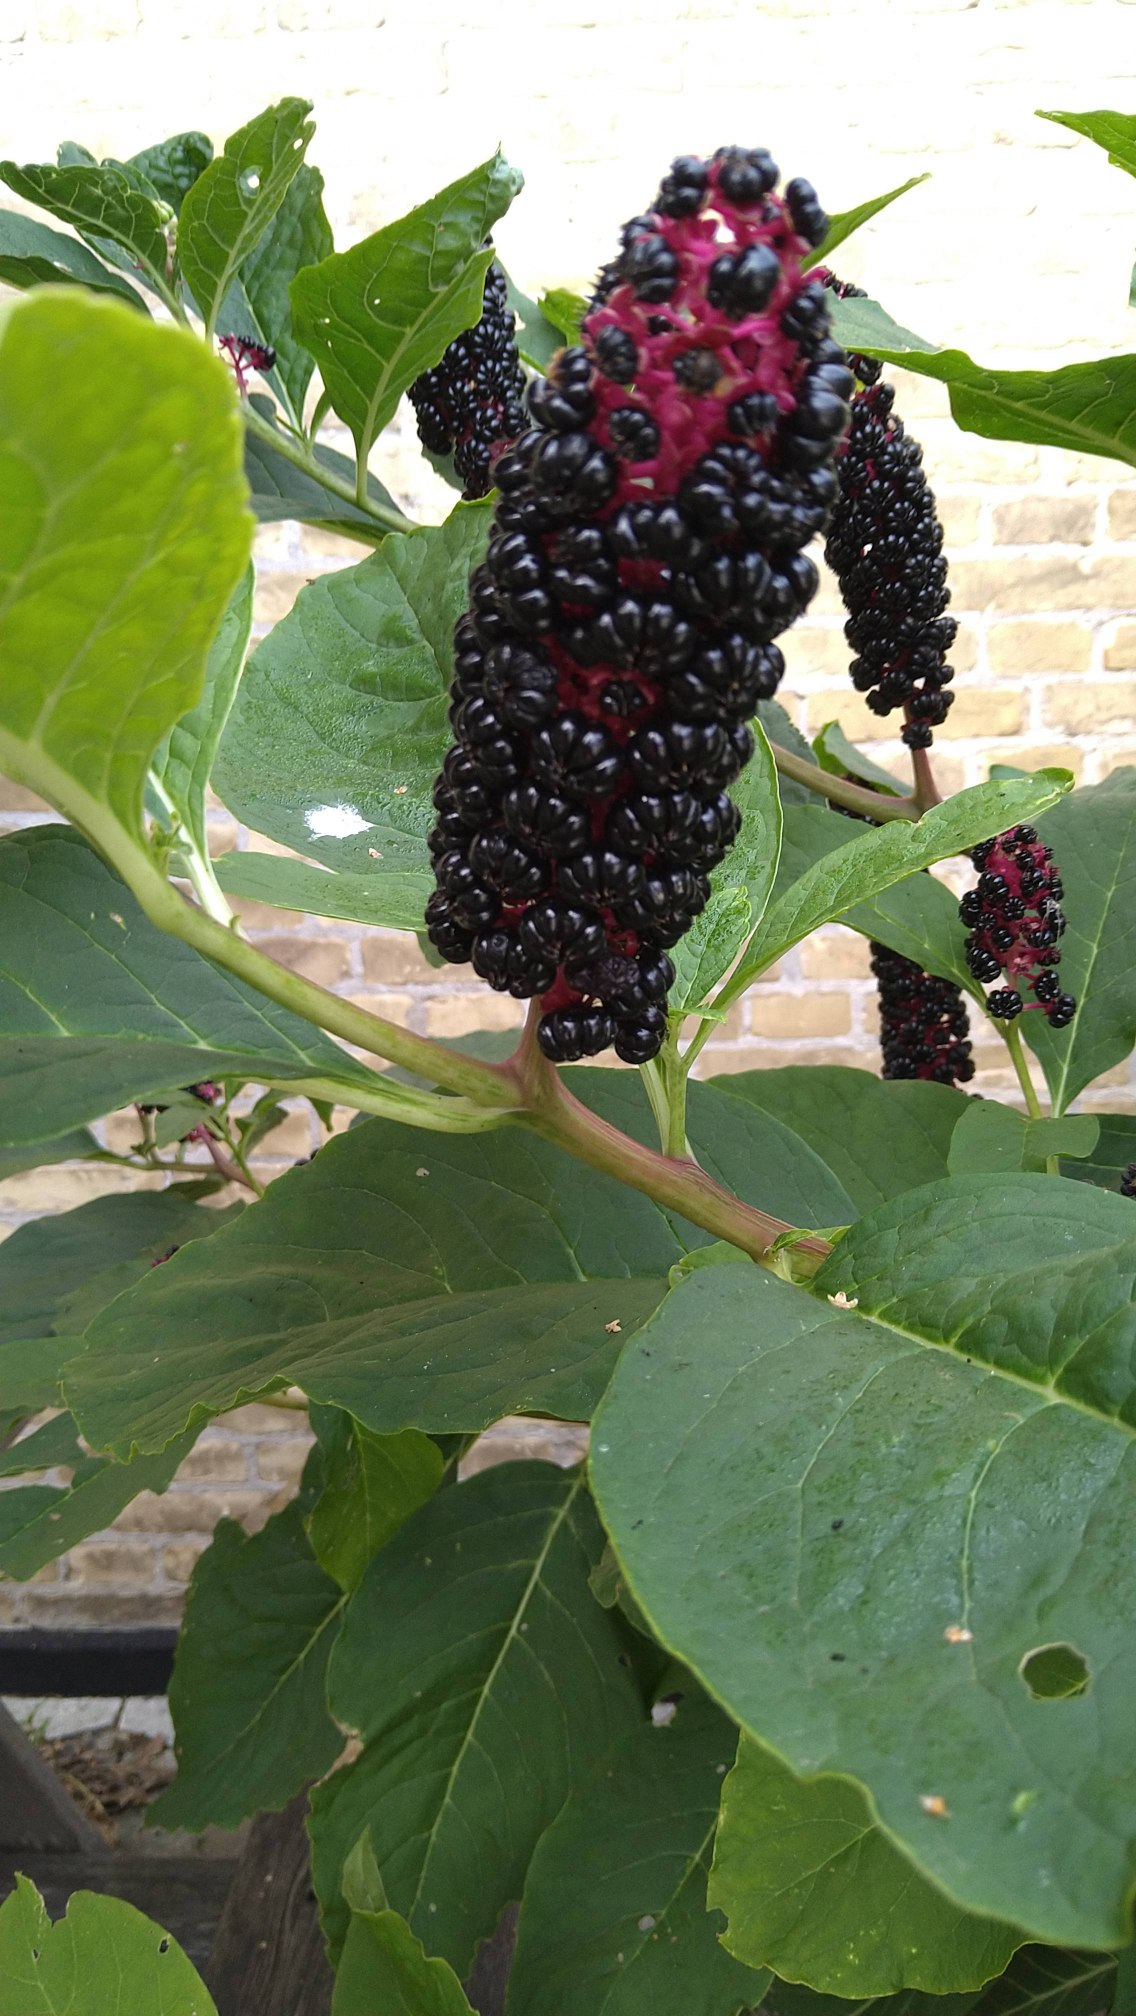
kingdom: Plantae
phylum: Tracheophyta
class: Magnoliopsida
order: Caryophyllales
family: Phytolaccaceae
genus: Phytolacca
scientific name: Phytolacca acinosa
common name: Asiatisk kermesbær
